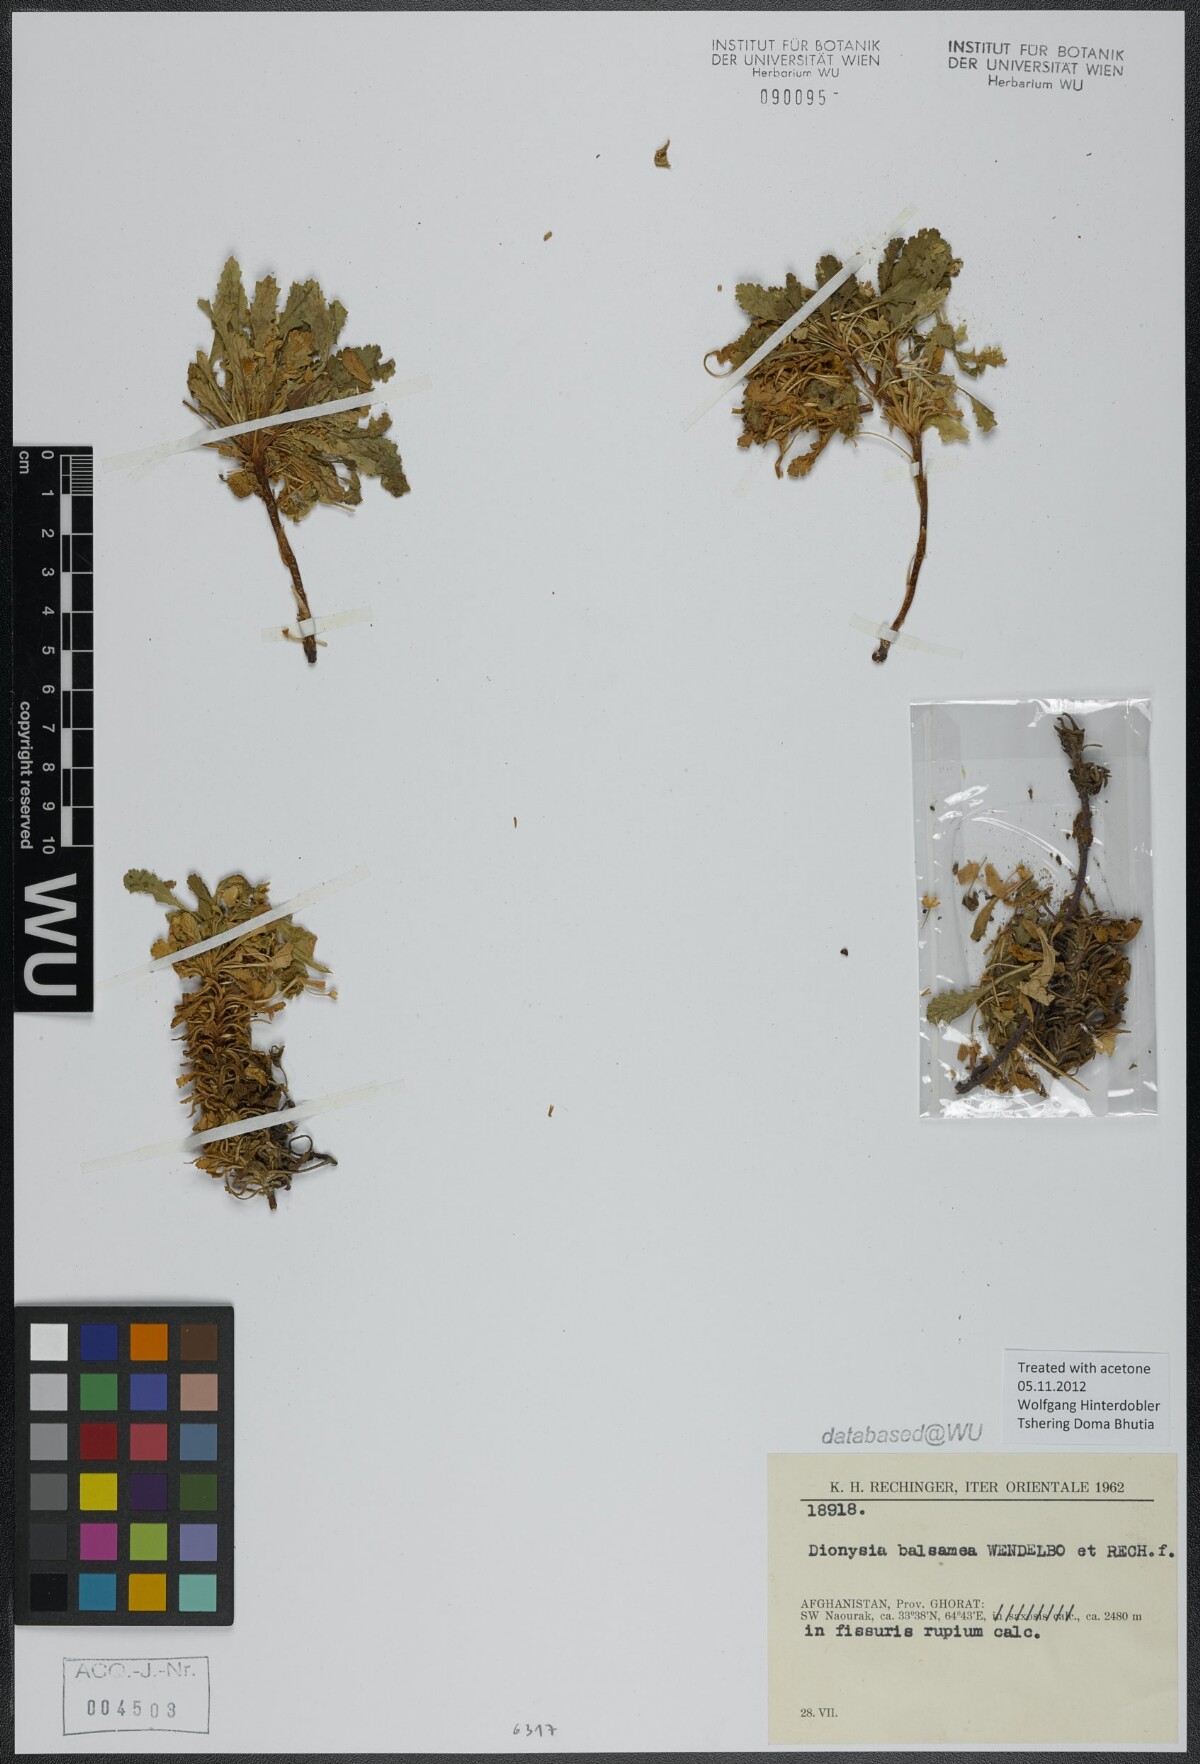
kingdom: Plantae
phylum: Tracheophyta
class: Magnoliopsida
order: Ericales
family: Primulaceae
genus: Dionysia
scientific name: Dionysia balsamea
